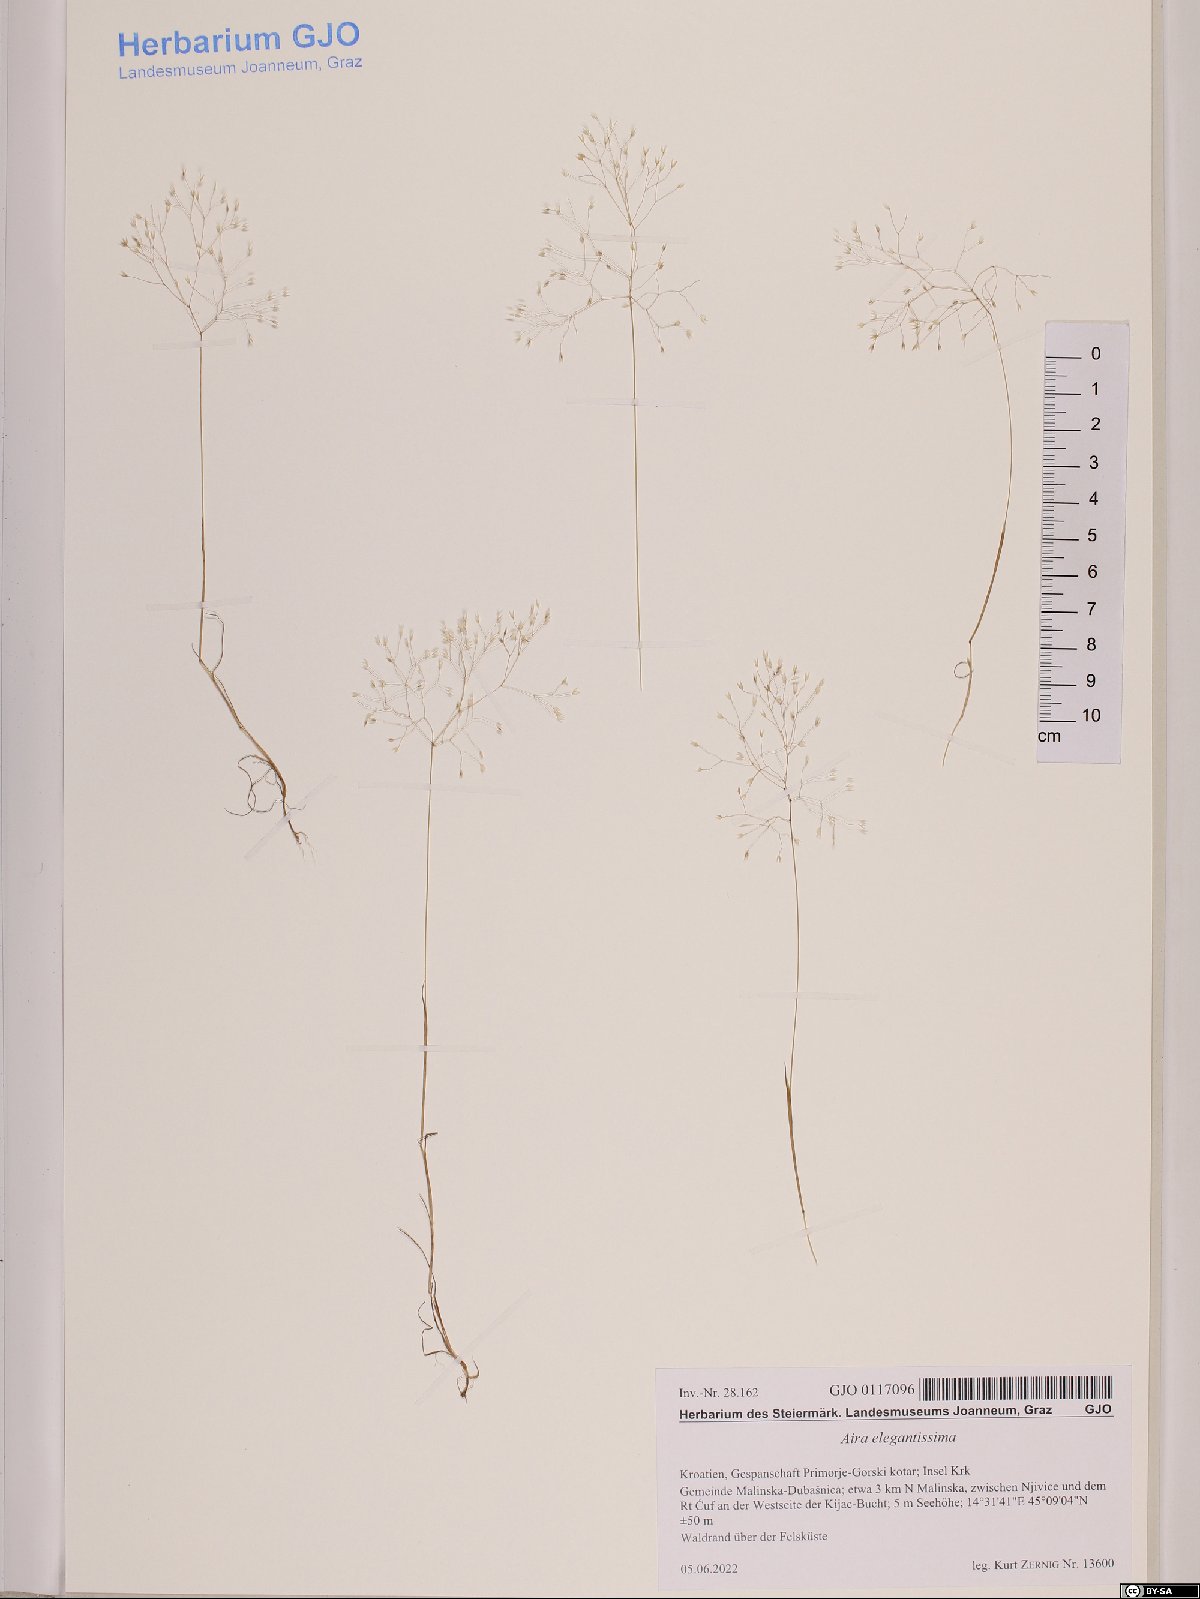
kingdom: Plantae
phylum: Tracheophyta
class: Liliopsida
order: Poales
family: Poaceae
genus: Aira
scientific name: Aira elegans
